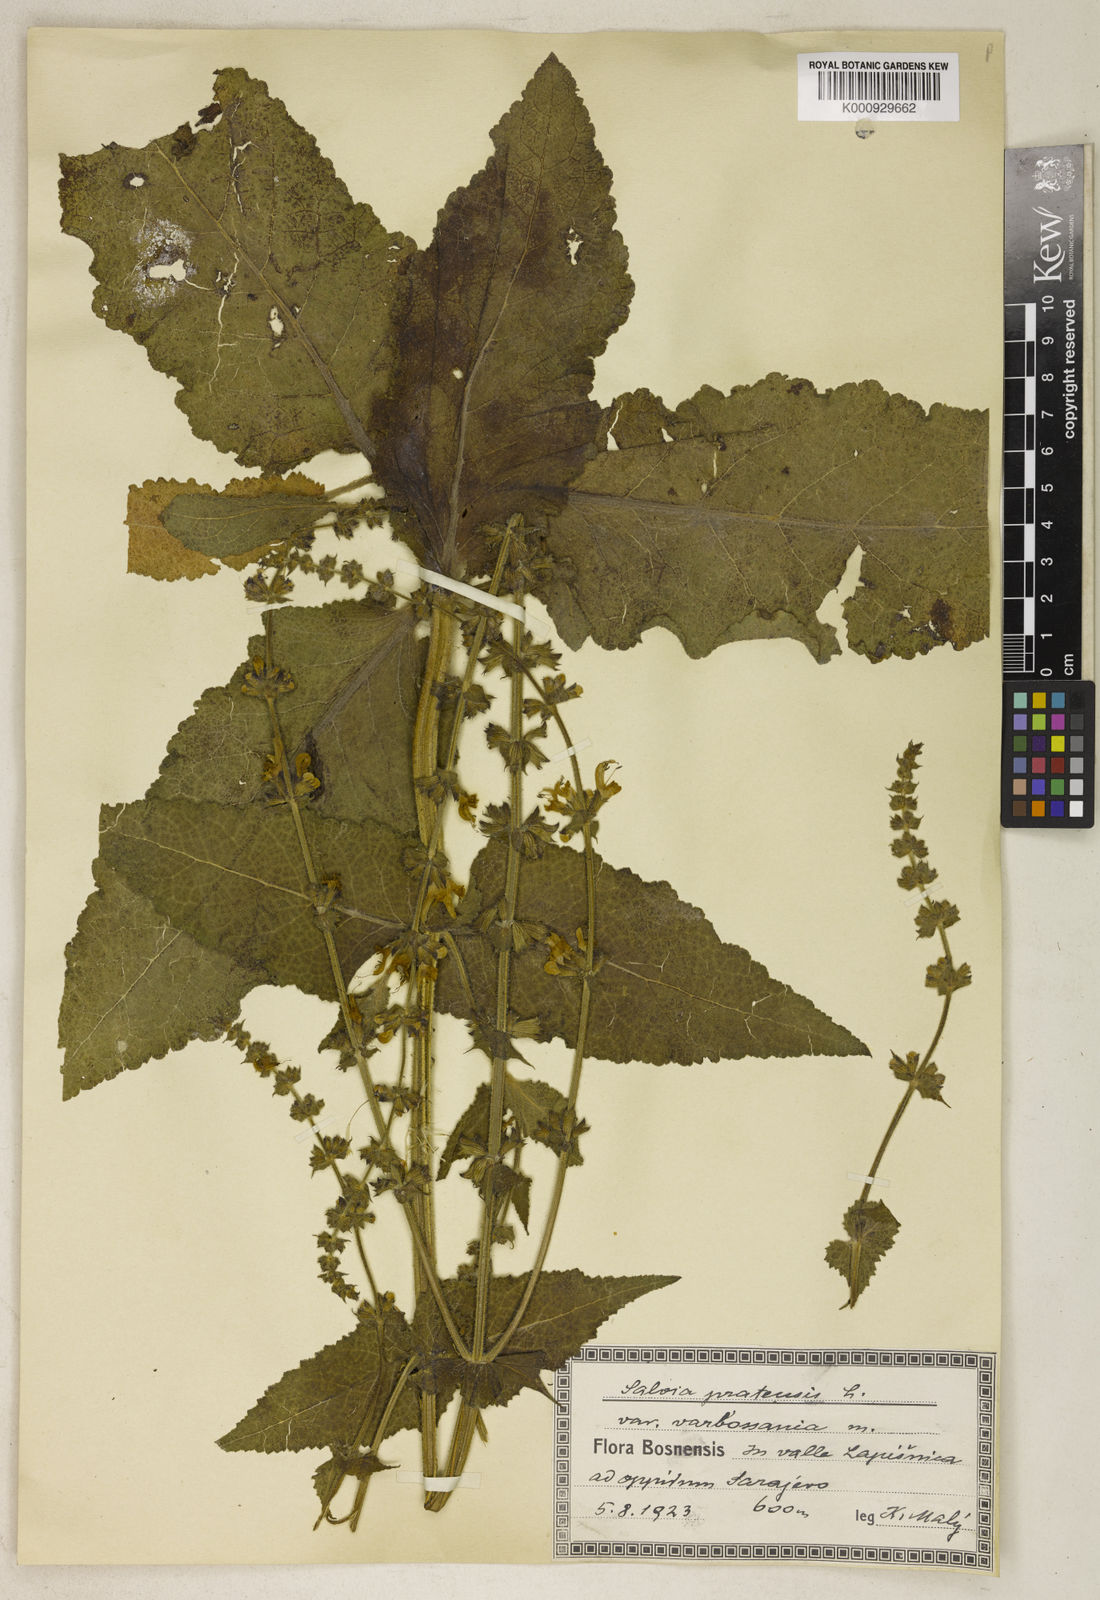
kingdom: Plantae
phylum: Tracheophyta
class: Magnoliopsida
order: Lamiales
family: Lamiaceae
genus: Salvia
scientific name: Salvia pratensis
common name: Meadow sage
